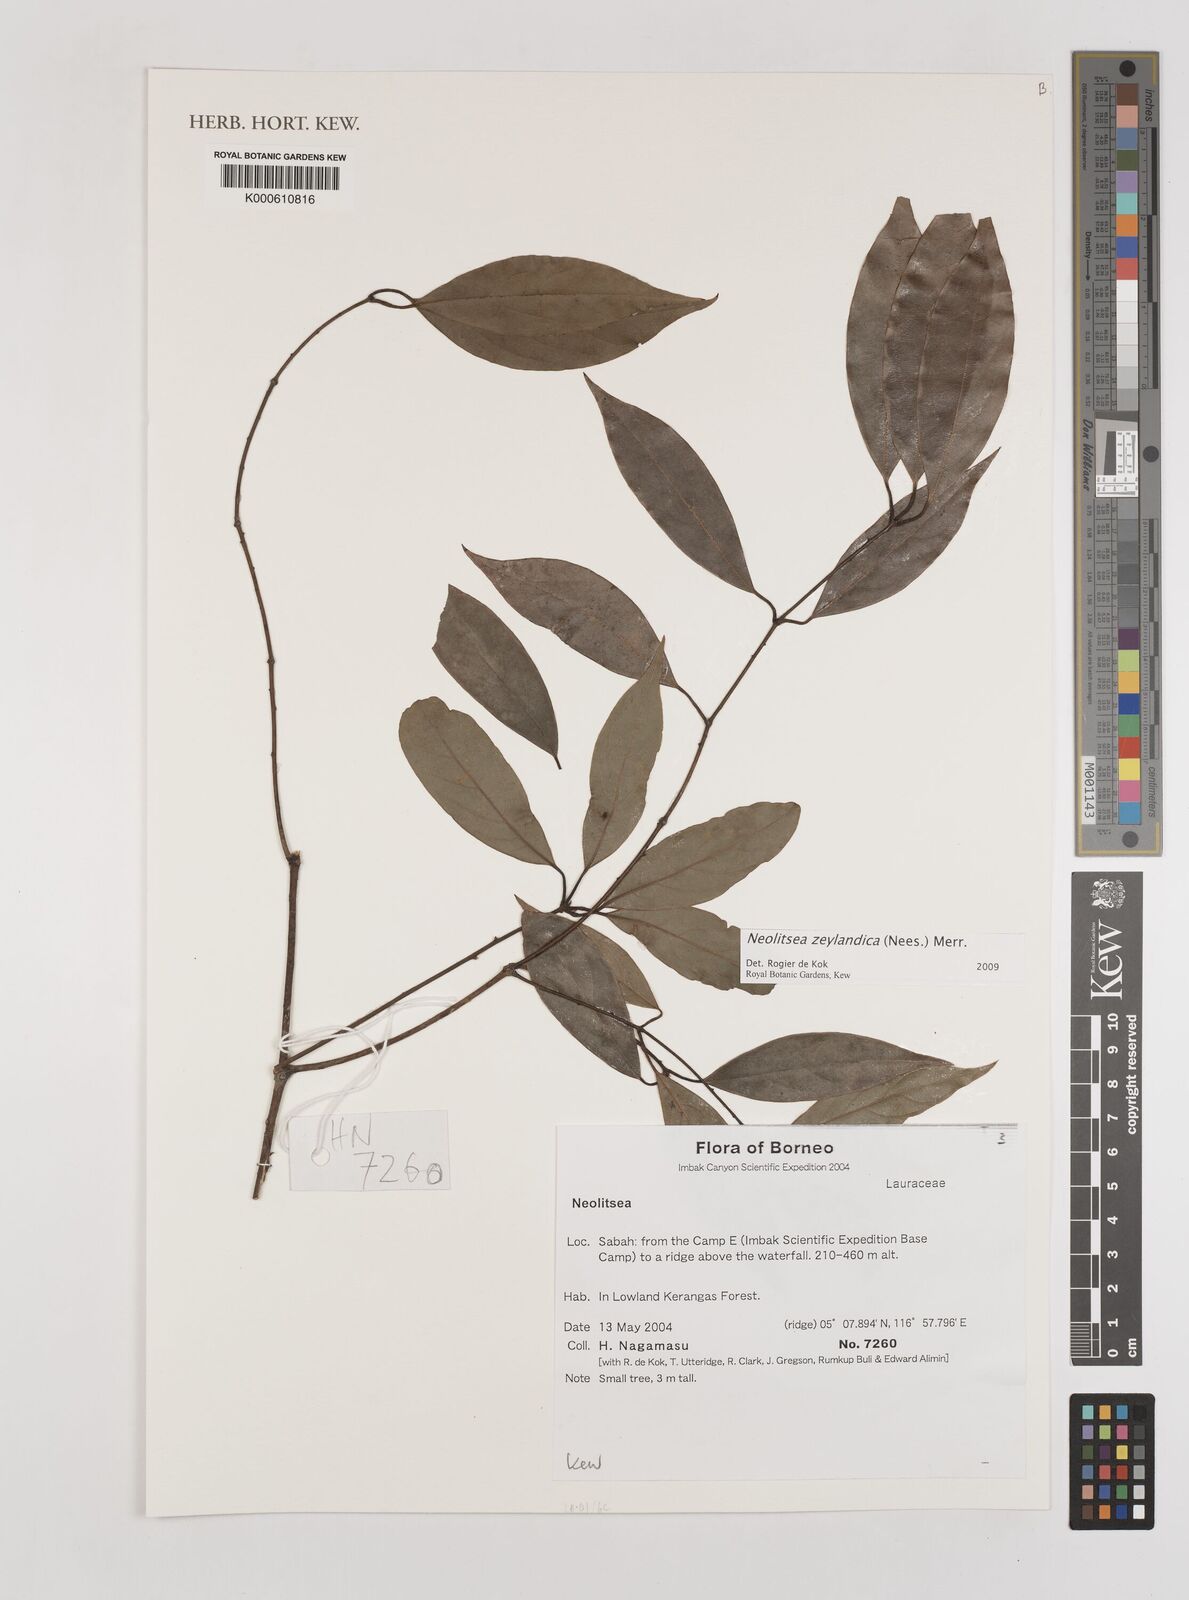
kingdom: Plantae
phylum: Tracheophyta
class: Magnoliopsida
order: Laurales
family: Lauraceae
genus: Neolitsea
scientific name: Neolitsea
